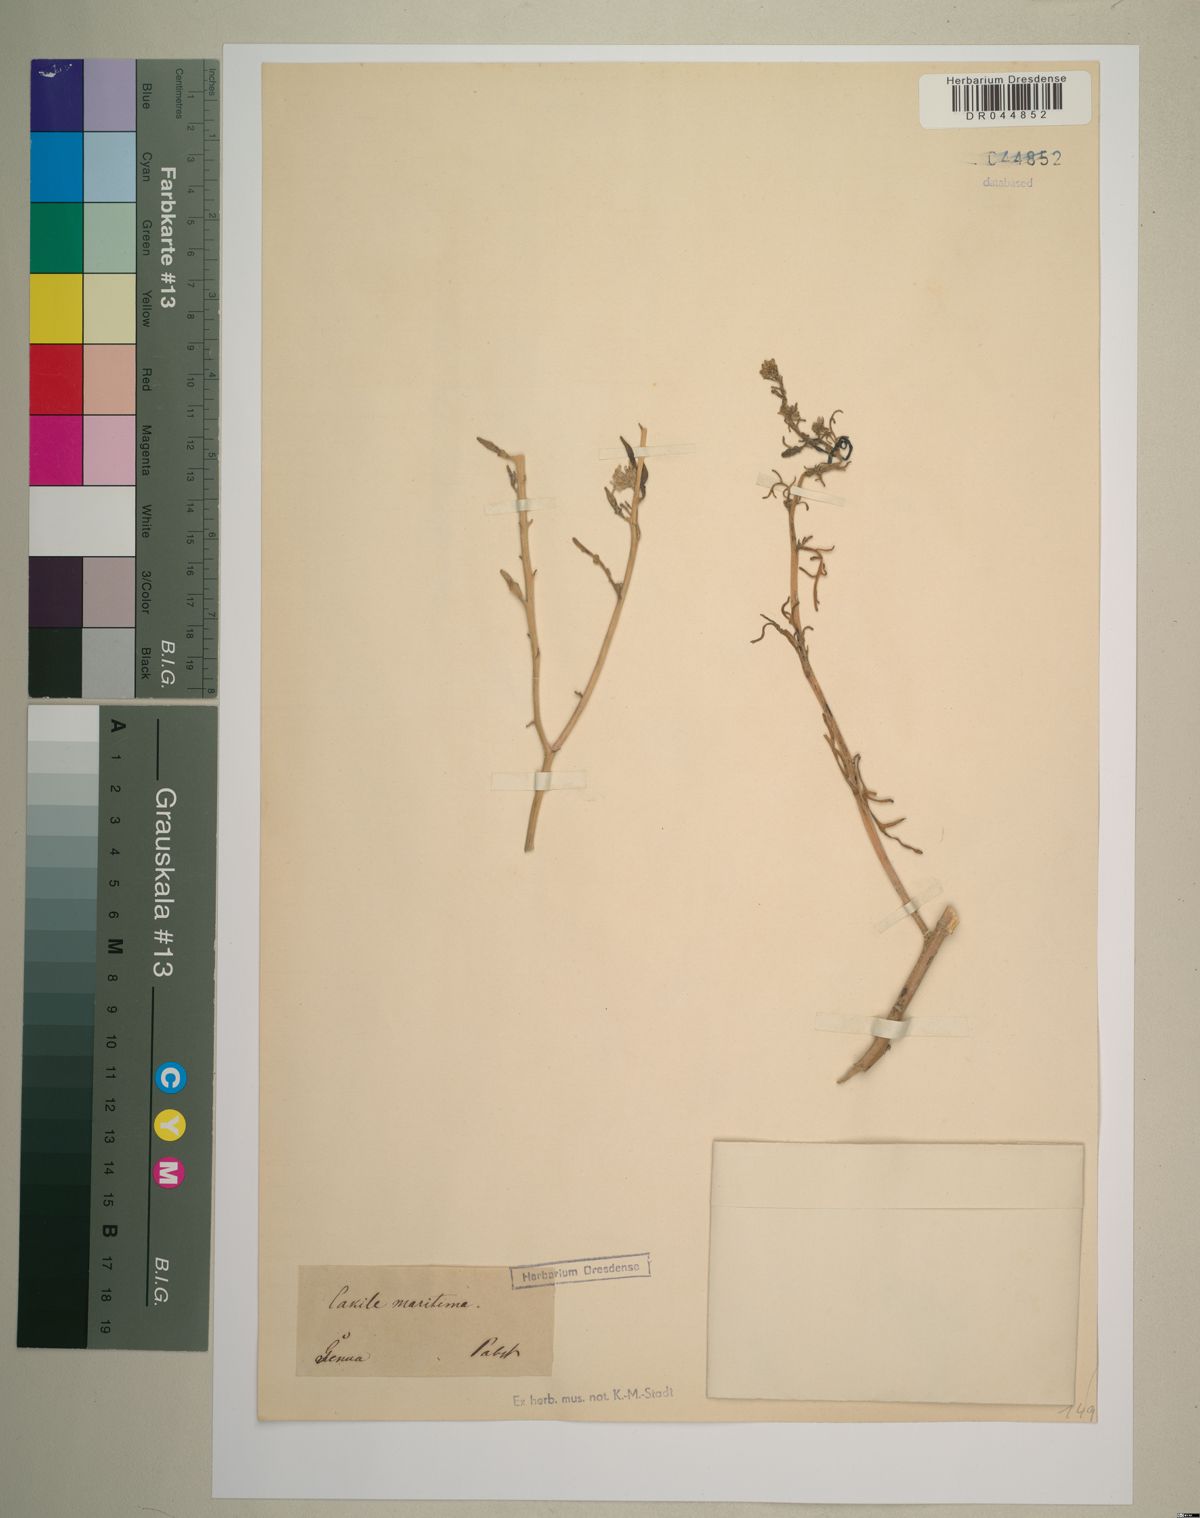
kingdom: Plantae
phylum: Tracheophyta
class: Magnoliopsida
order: Brassicales
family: Brassicaceae
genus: Cakile
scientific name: Cakile maritima
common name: Sea rocket
